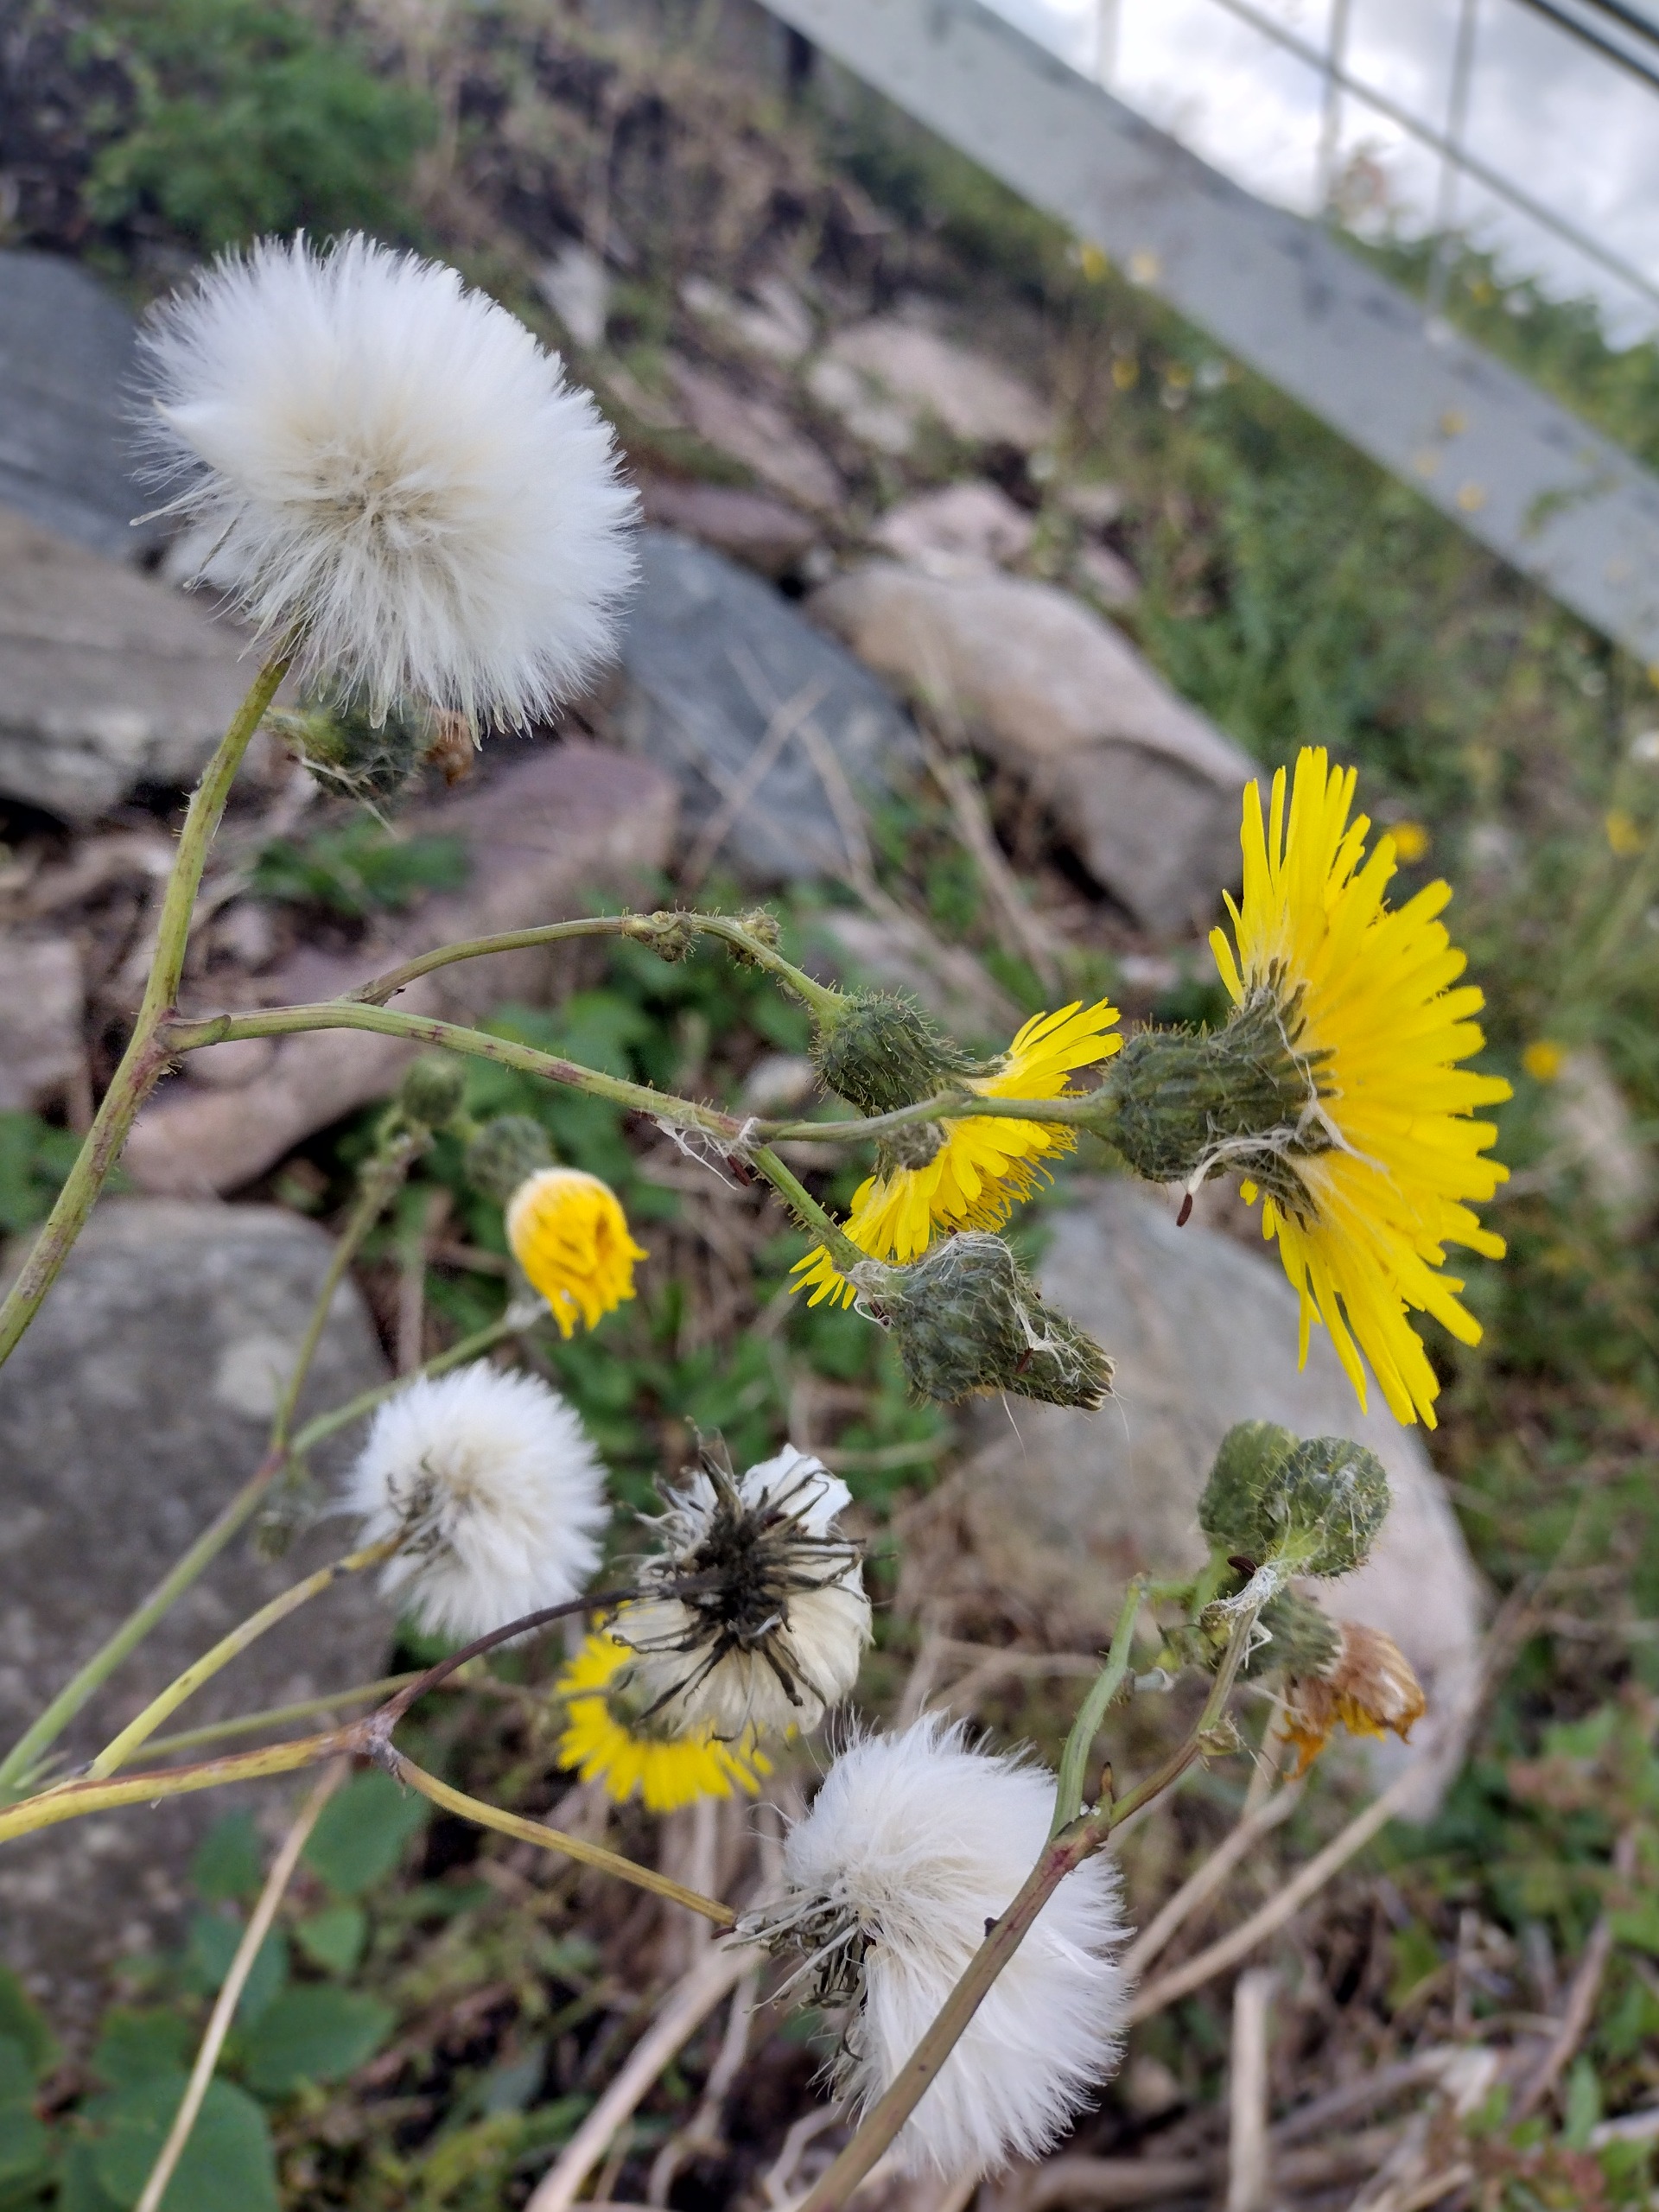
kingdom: Plantae
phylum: Tracheophyta
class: Magnoliopsida
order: Asterales
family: Asteraceae
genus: Sonchus
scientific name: Sonchus arvensis
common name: Ager-svinemælk
